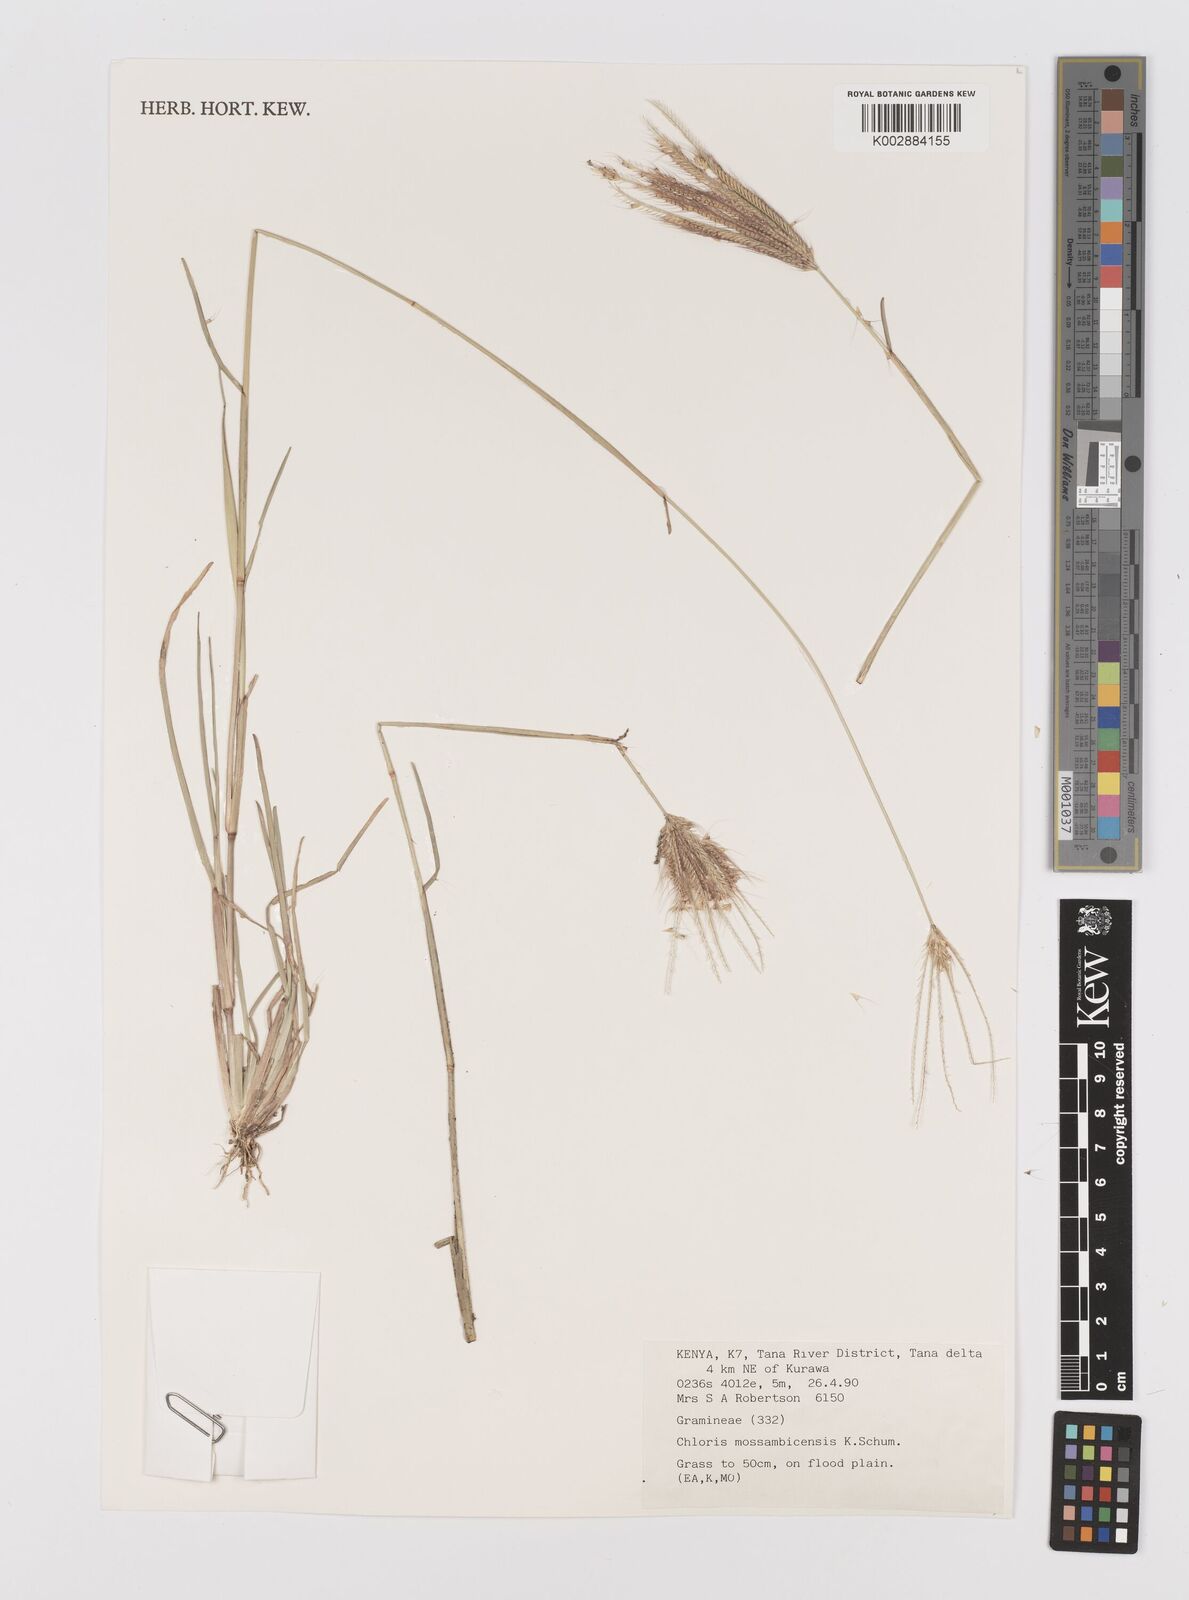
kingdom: Plantae
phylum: Tracheophyta
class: Liliopsida
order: Poales
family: Poaceae
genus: Chloris
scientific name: Chloris mossambicensis
